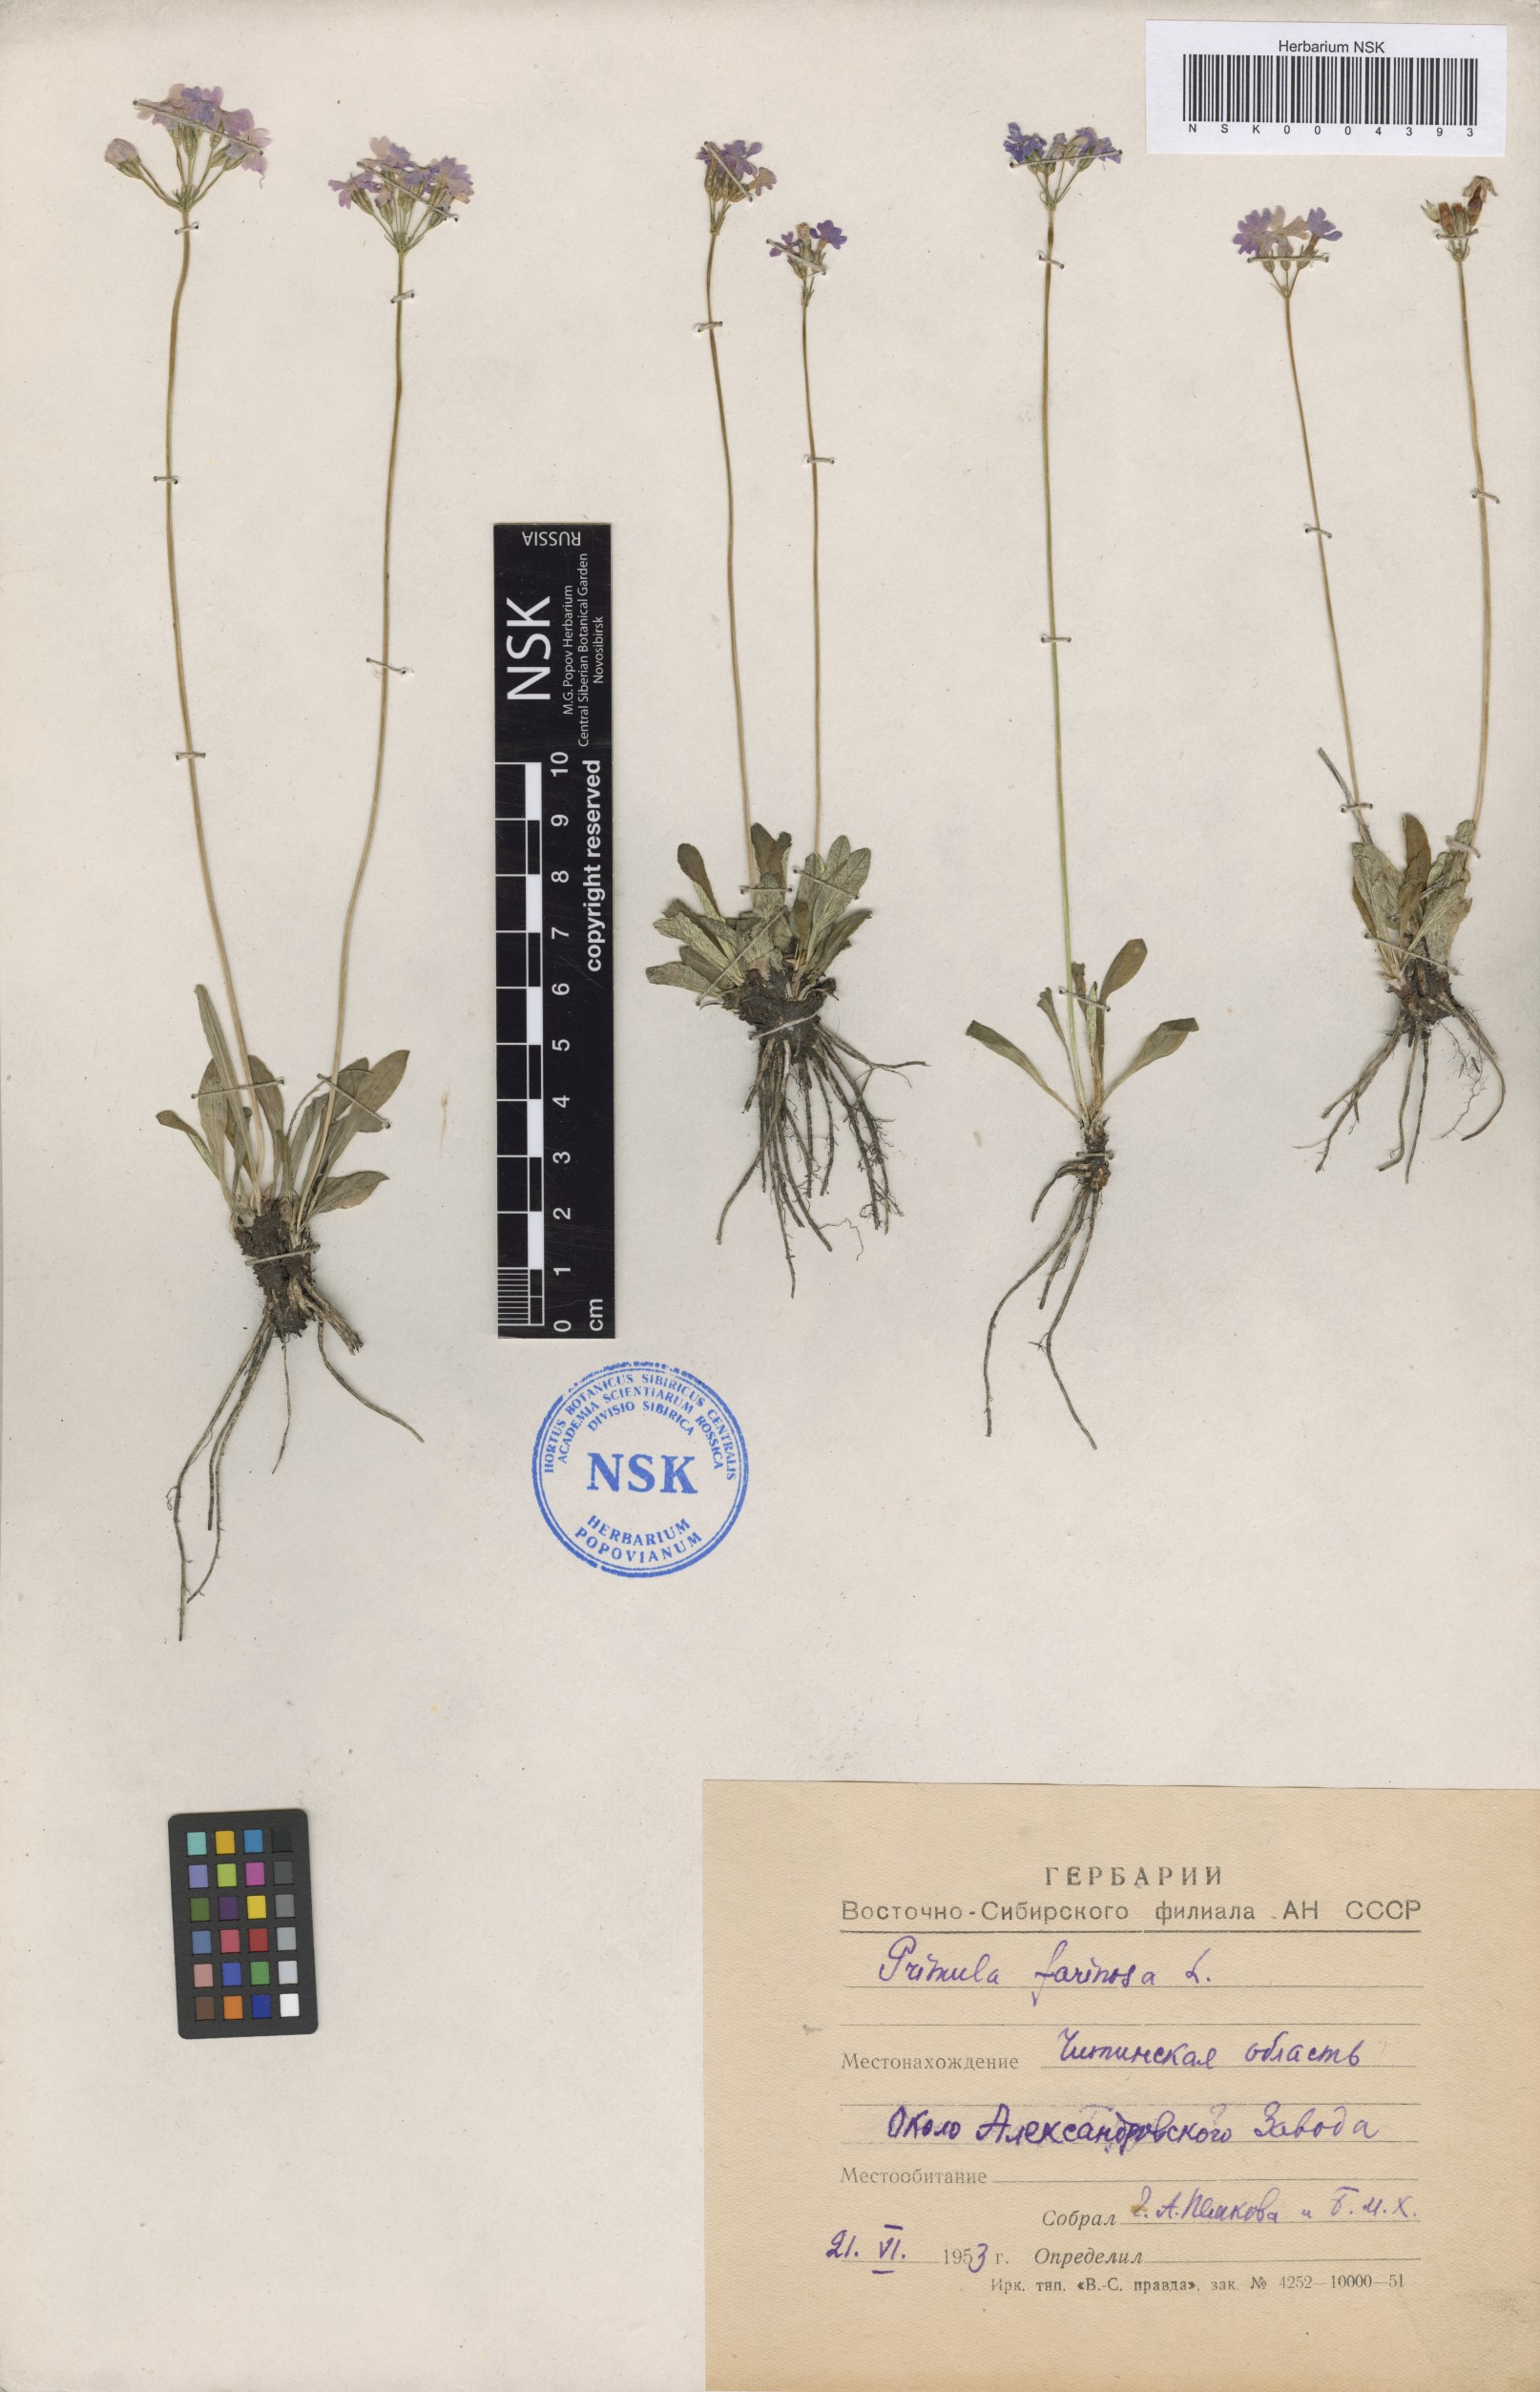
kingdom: Plantae
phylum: Tracheophyta
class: Magnoliopsida
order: Ericales
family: Primulaceae
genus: Primula
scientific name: Primula farinosa
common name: Bird's-eye primrose
